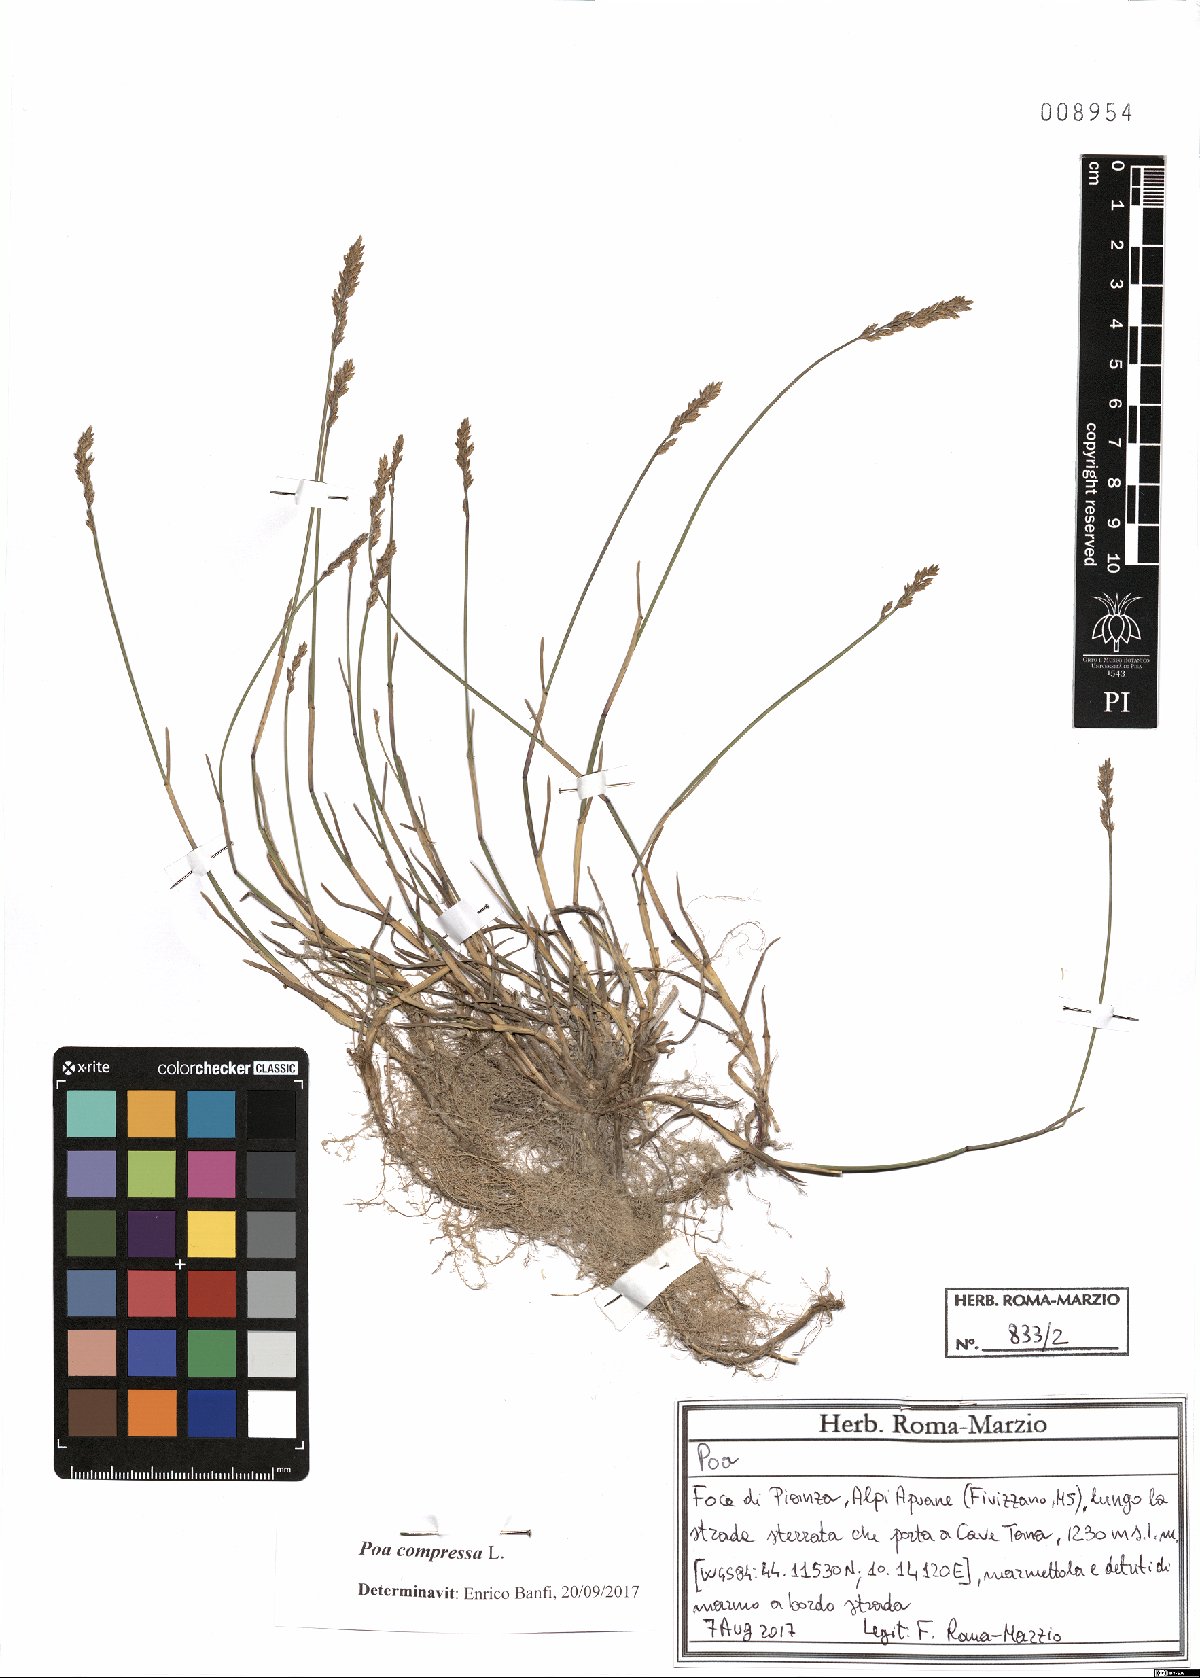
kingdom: Plantae
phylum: Tracheophyta
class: Liliopsida
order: Poales
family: Poaceae
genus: Poa
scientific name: Poa compressa
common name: Canada bluegrass
